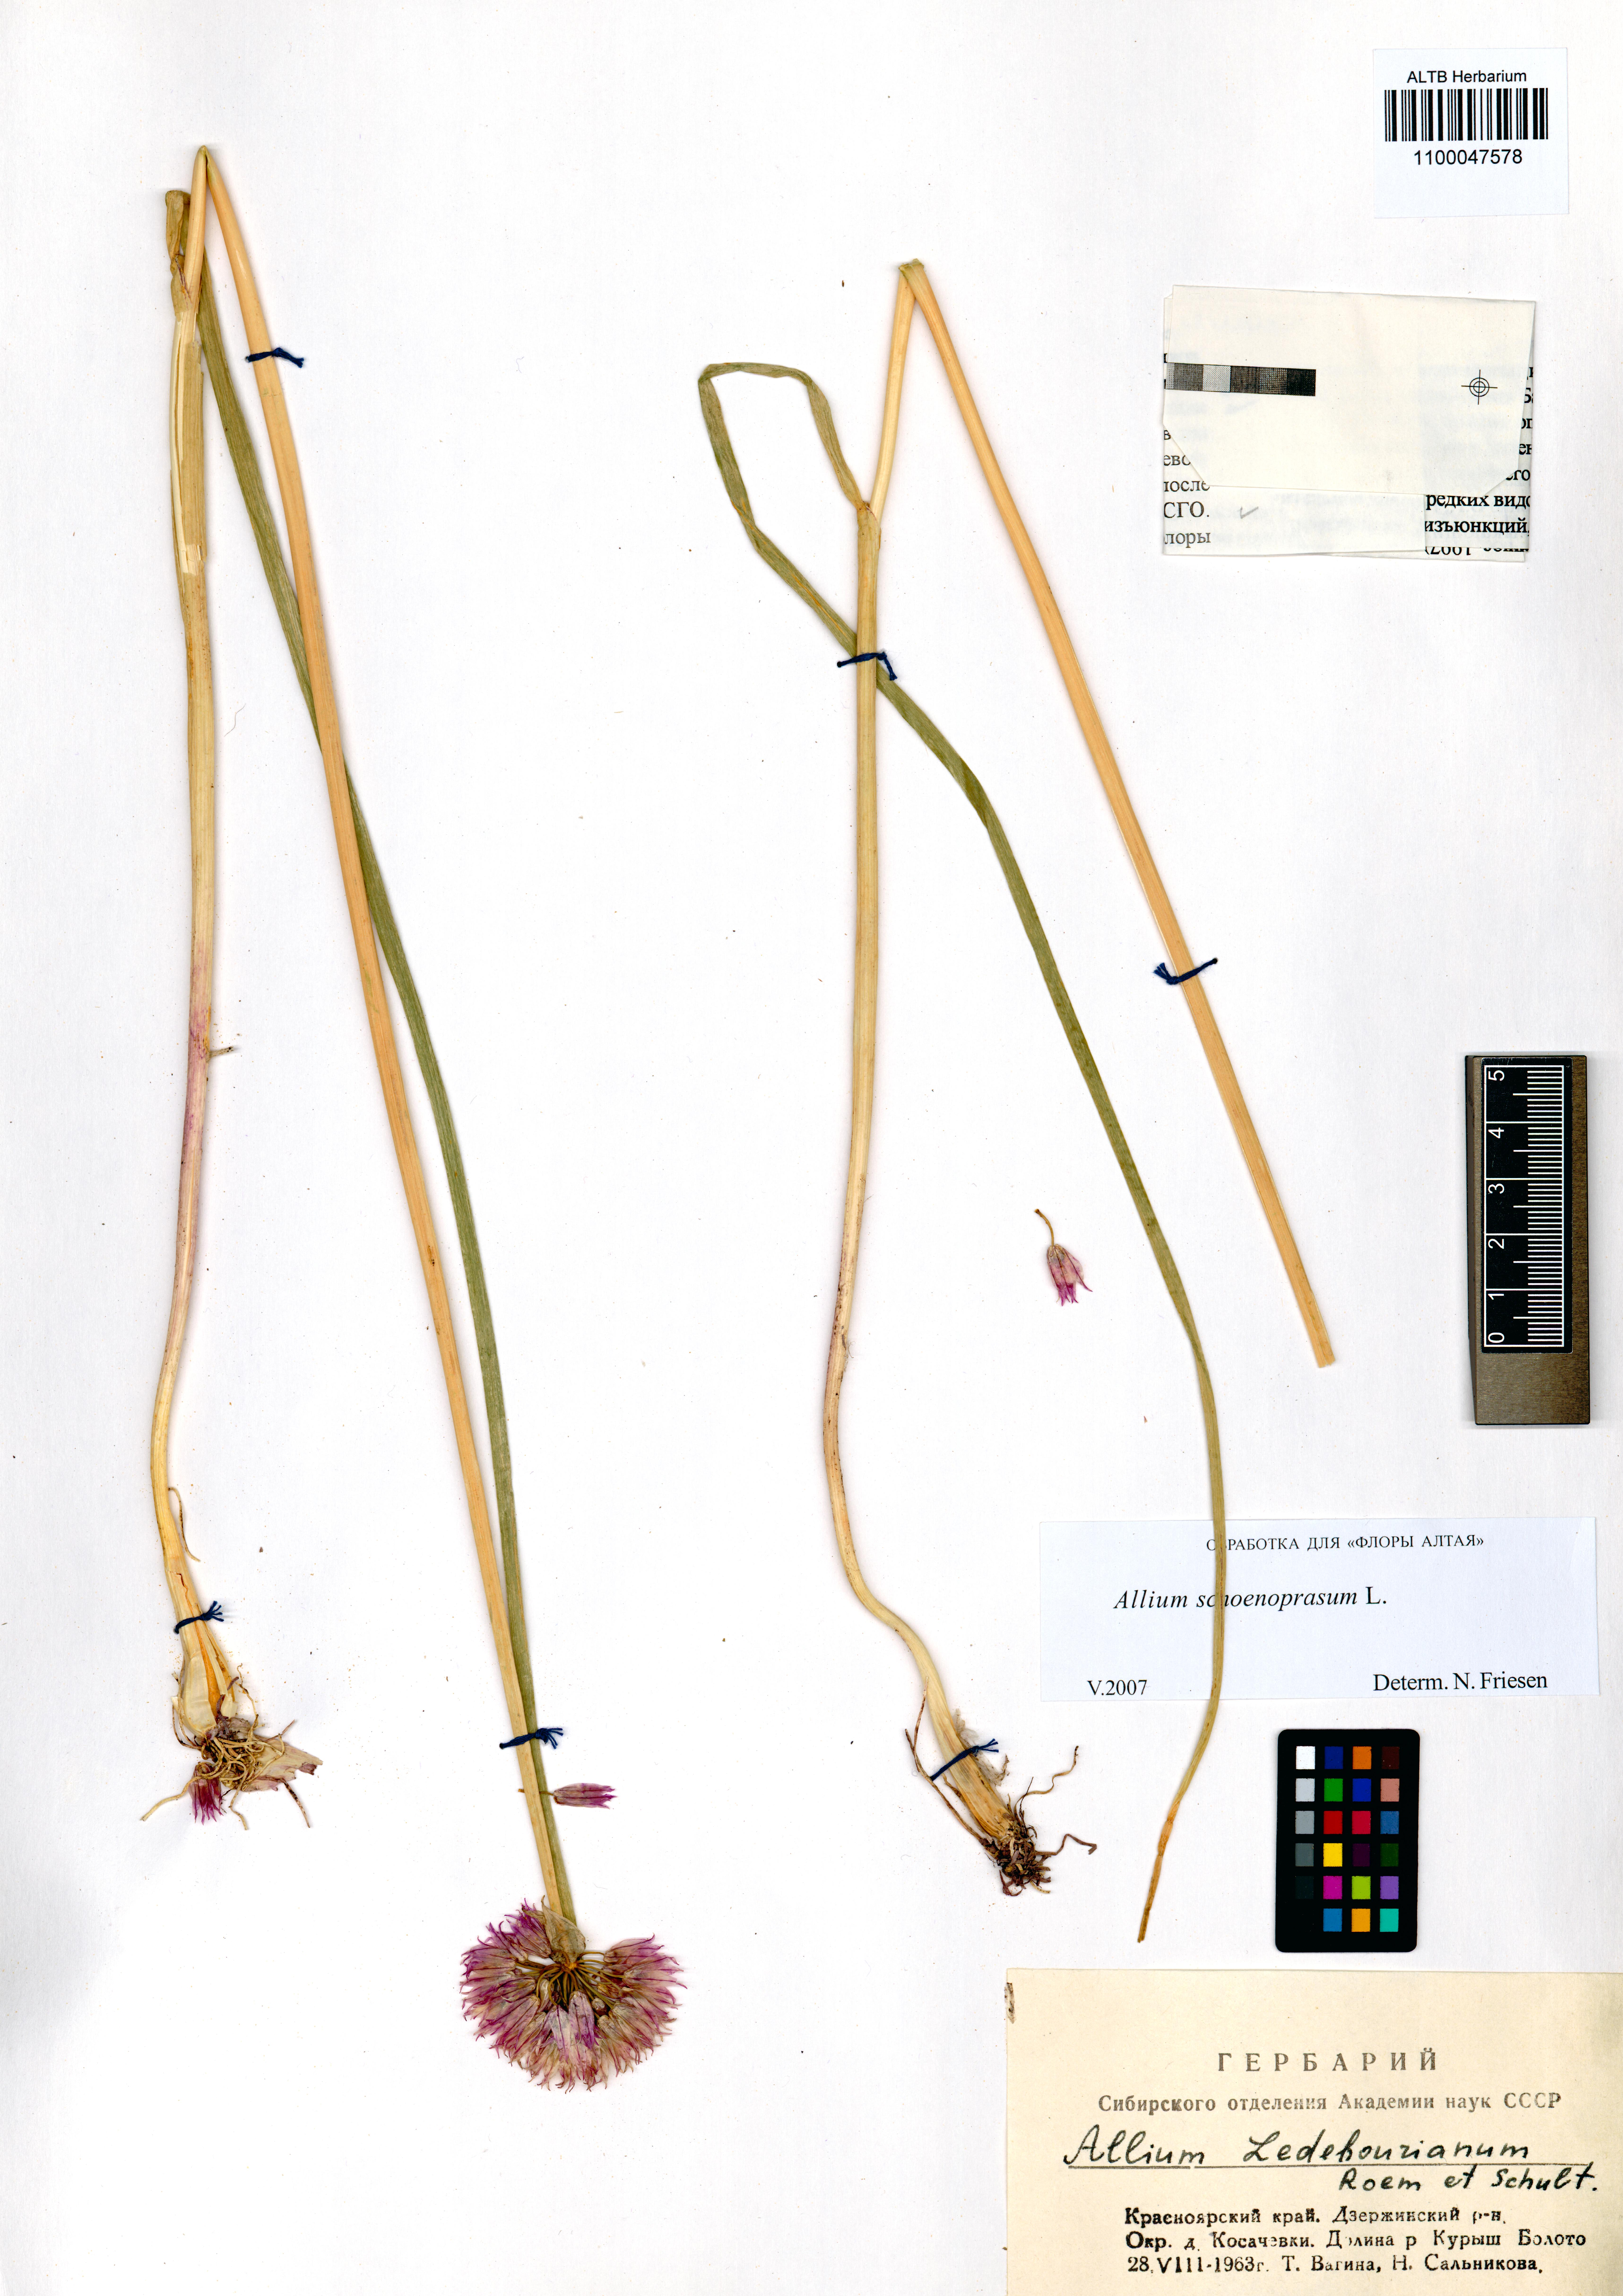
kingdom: Plantae
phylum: Tracheophyta
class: Liliopsida
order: Asparagales
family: Amaryllidaceae
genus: Allium
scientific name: Allium schoenoprasum
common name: Chives
